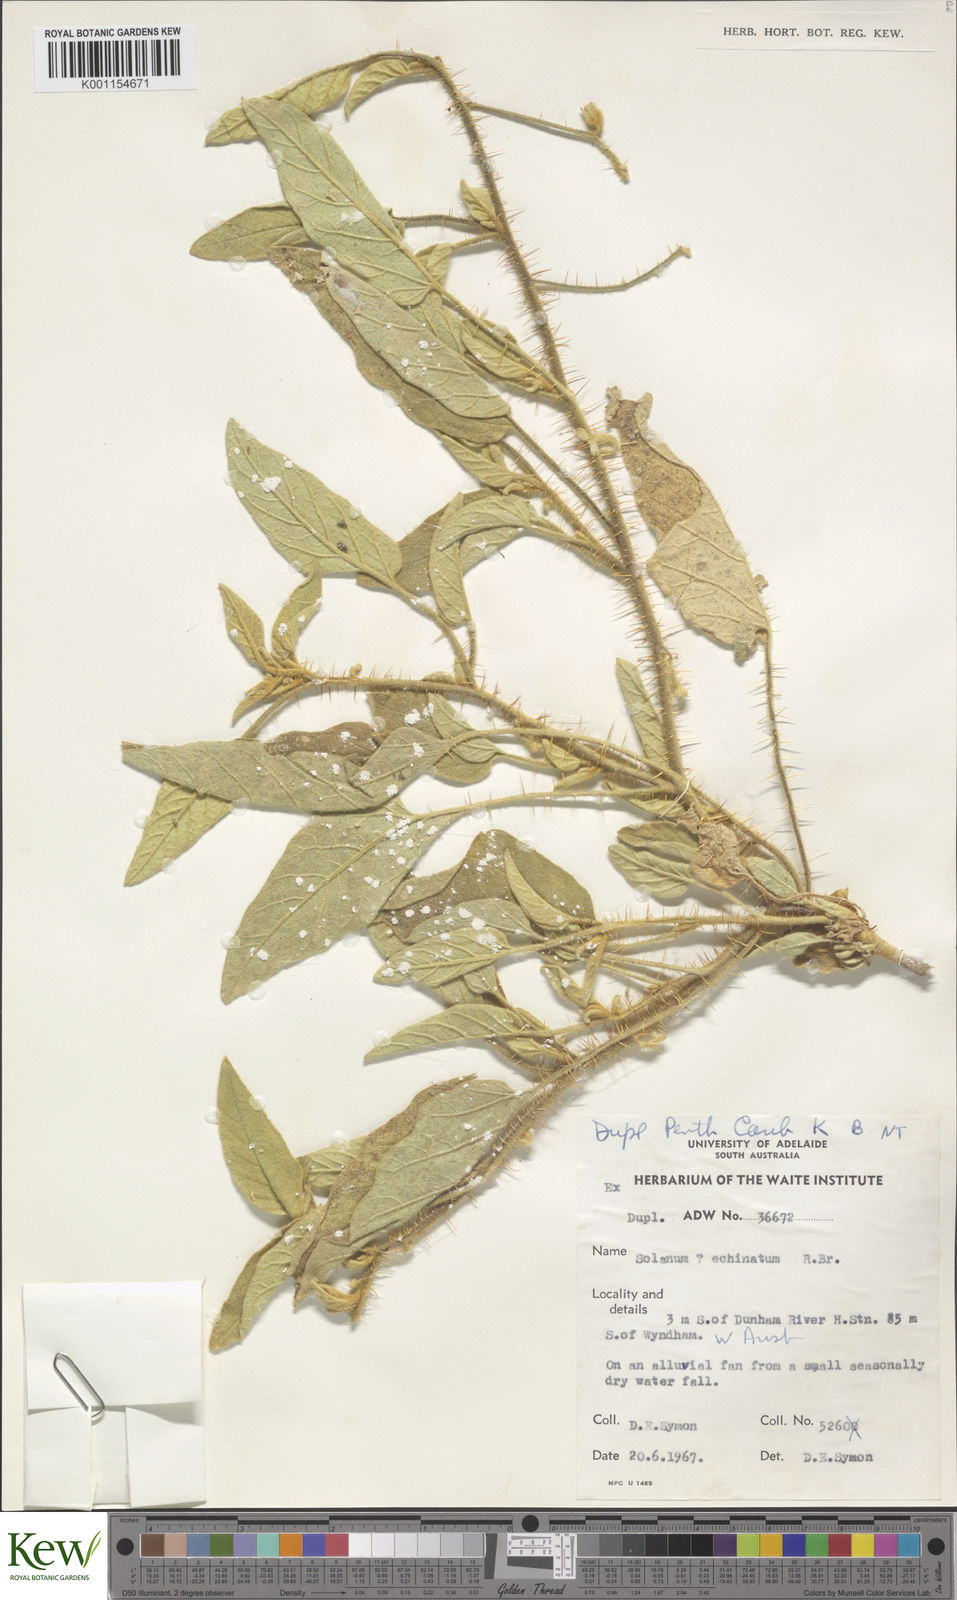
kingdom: Plantae
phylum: Tracheophyta
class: Magnoliopsida
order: Solanales
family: Solanaceae
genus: Solanum
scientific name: Solanum echinatum
